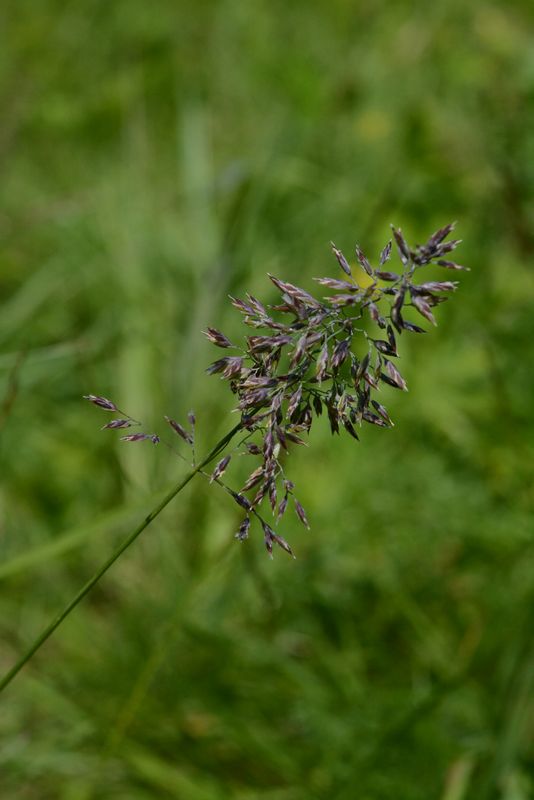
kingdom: Plantae
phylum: Tracheophyta
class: Liliopsida
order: Poales
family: Poaceae
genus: Poa
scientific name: Poa
